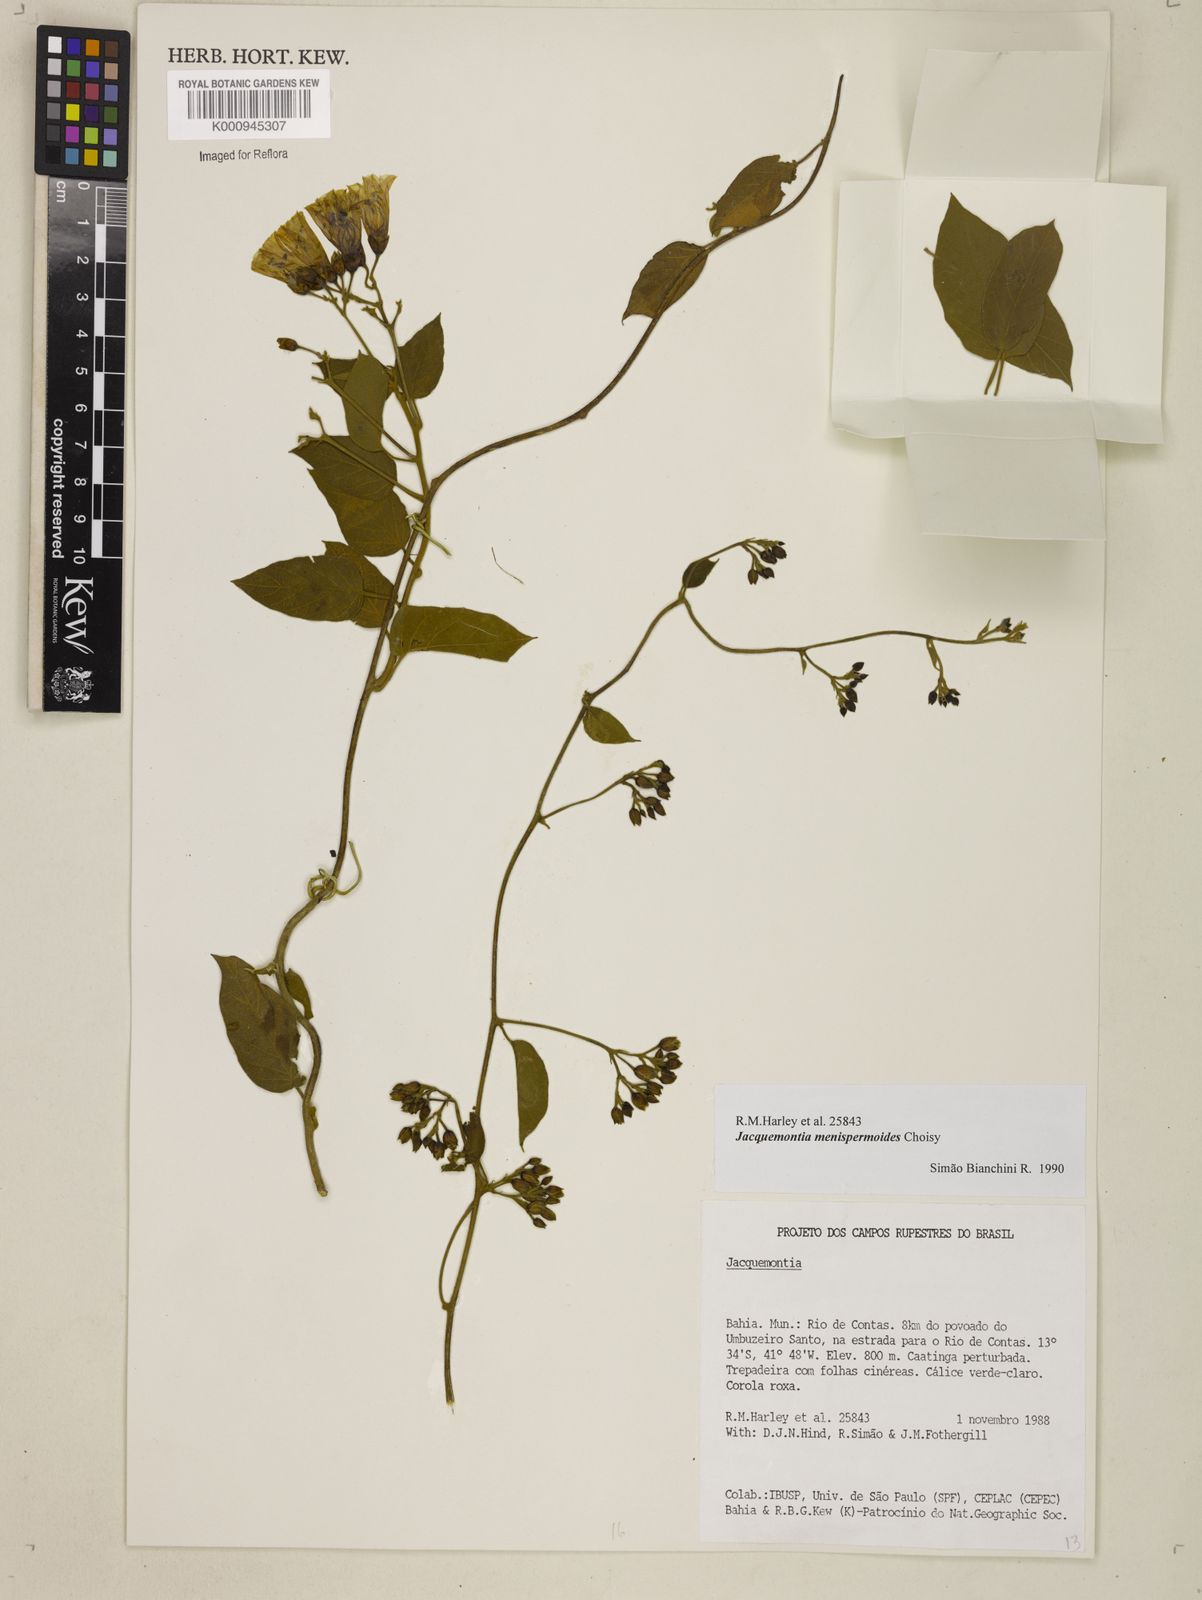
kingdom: Plantae
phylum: Tracheophyta
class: Magnoliopsida
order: Solanales
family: Convolvulaceae
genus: Jacquemontia
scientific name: Jacquemontia holosericea
